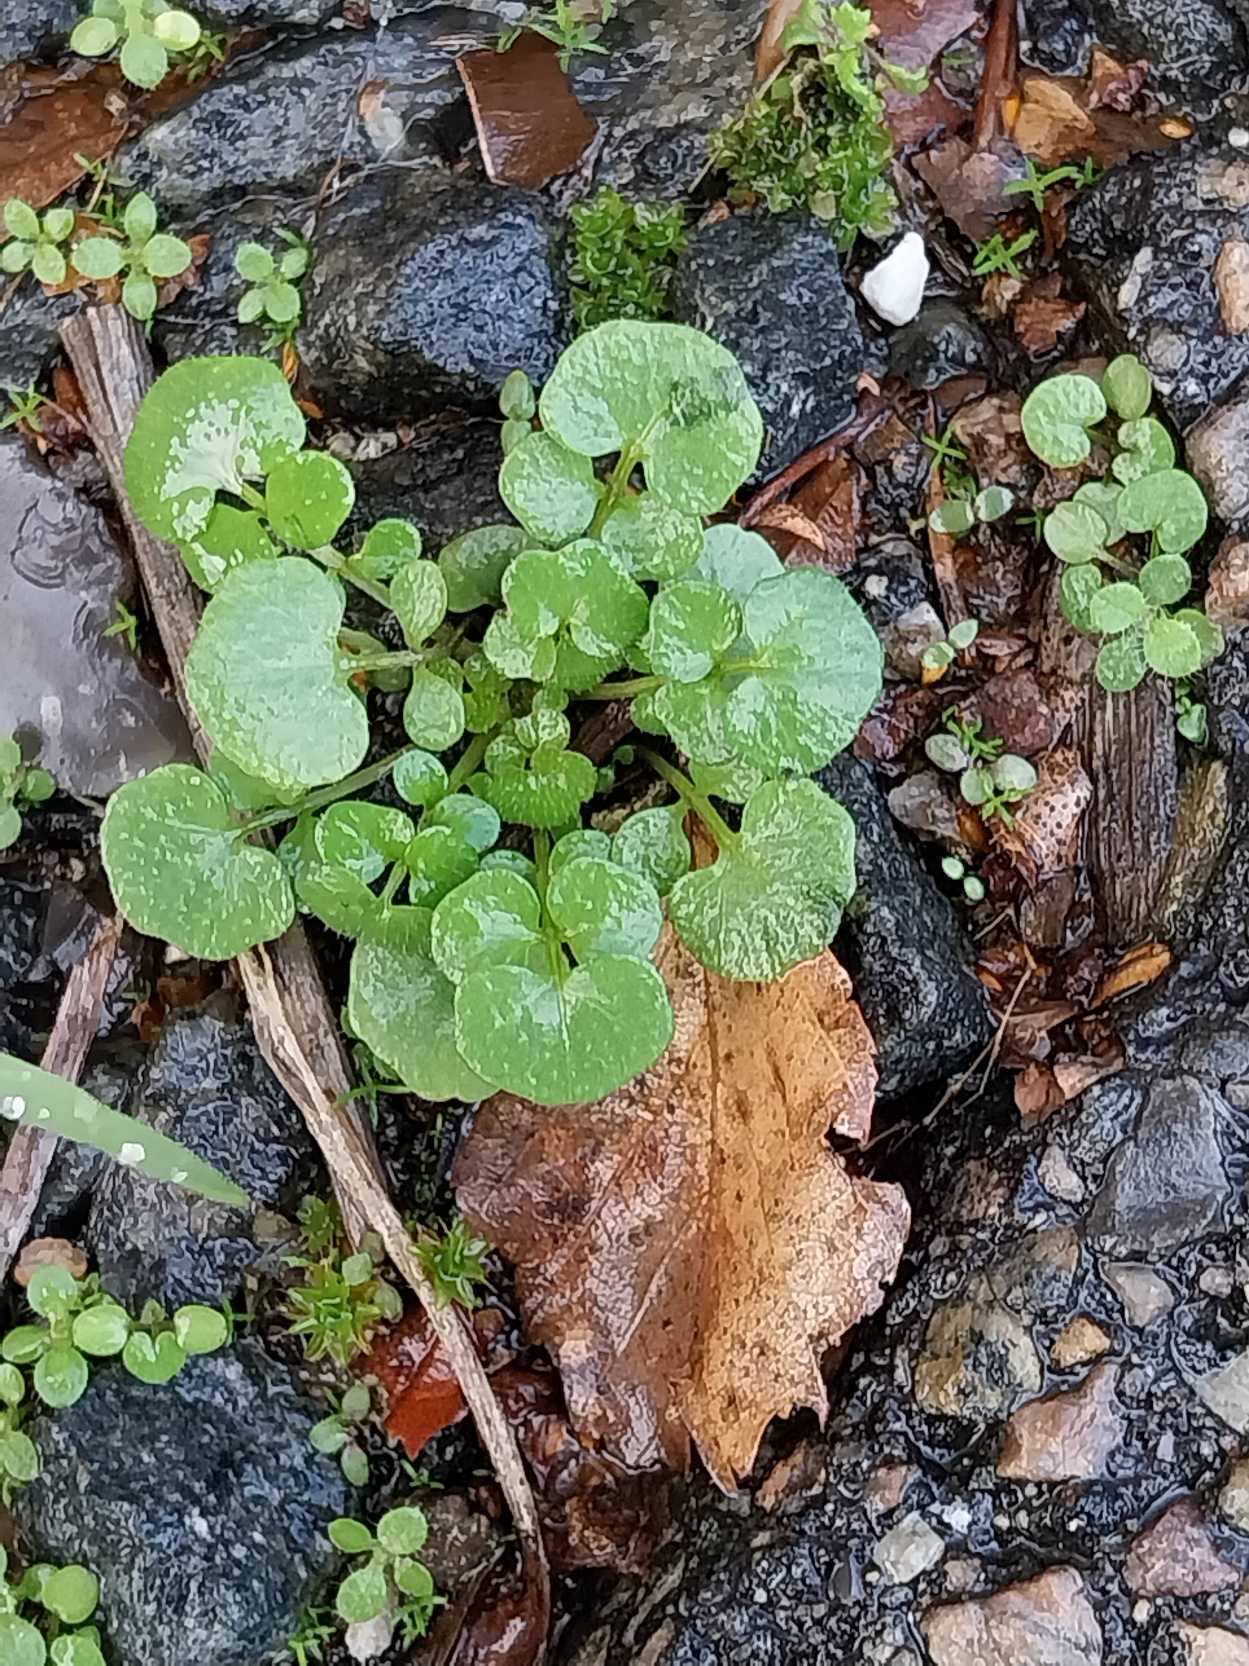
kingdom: Plantae
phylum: Tracheophyta
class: Magnoliopsida
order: Brassicales
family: Brassicaceae
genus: Cardamine
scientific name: Cardamine hirsuta
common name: Roset-springklap
